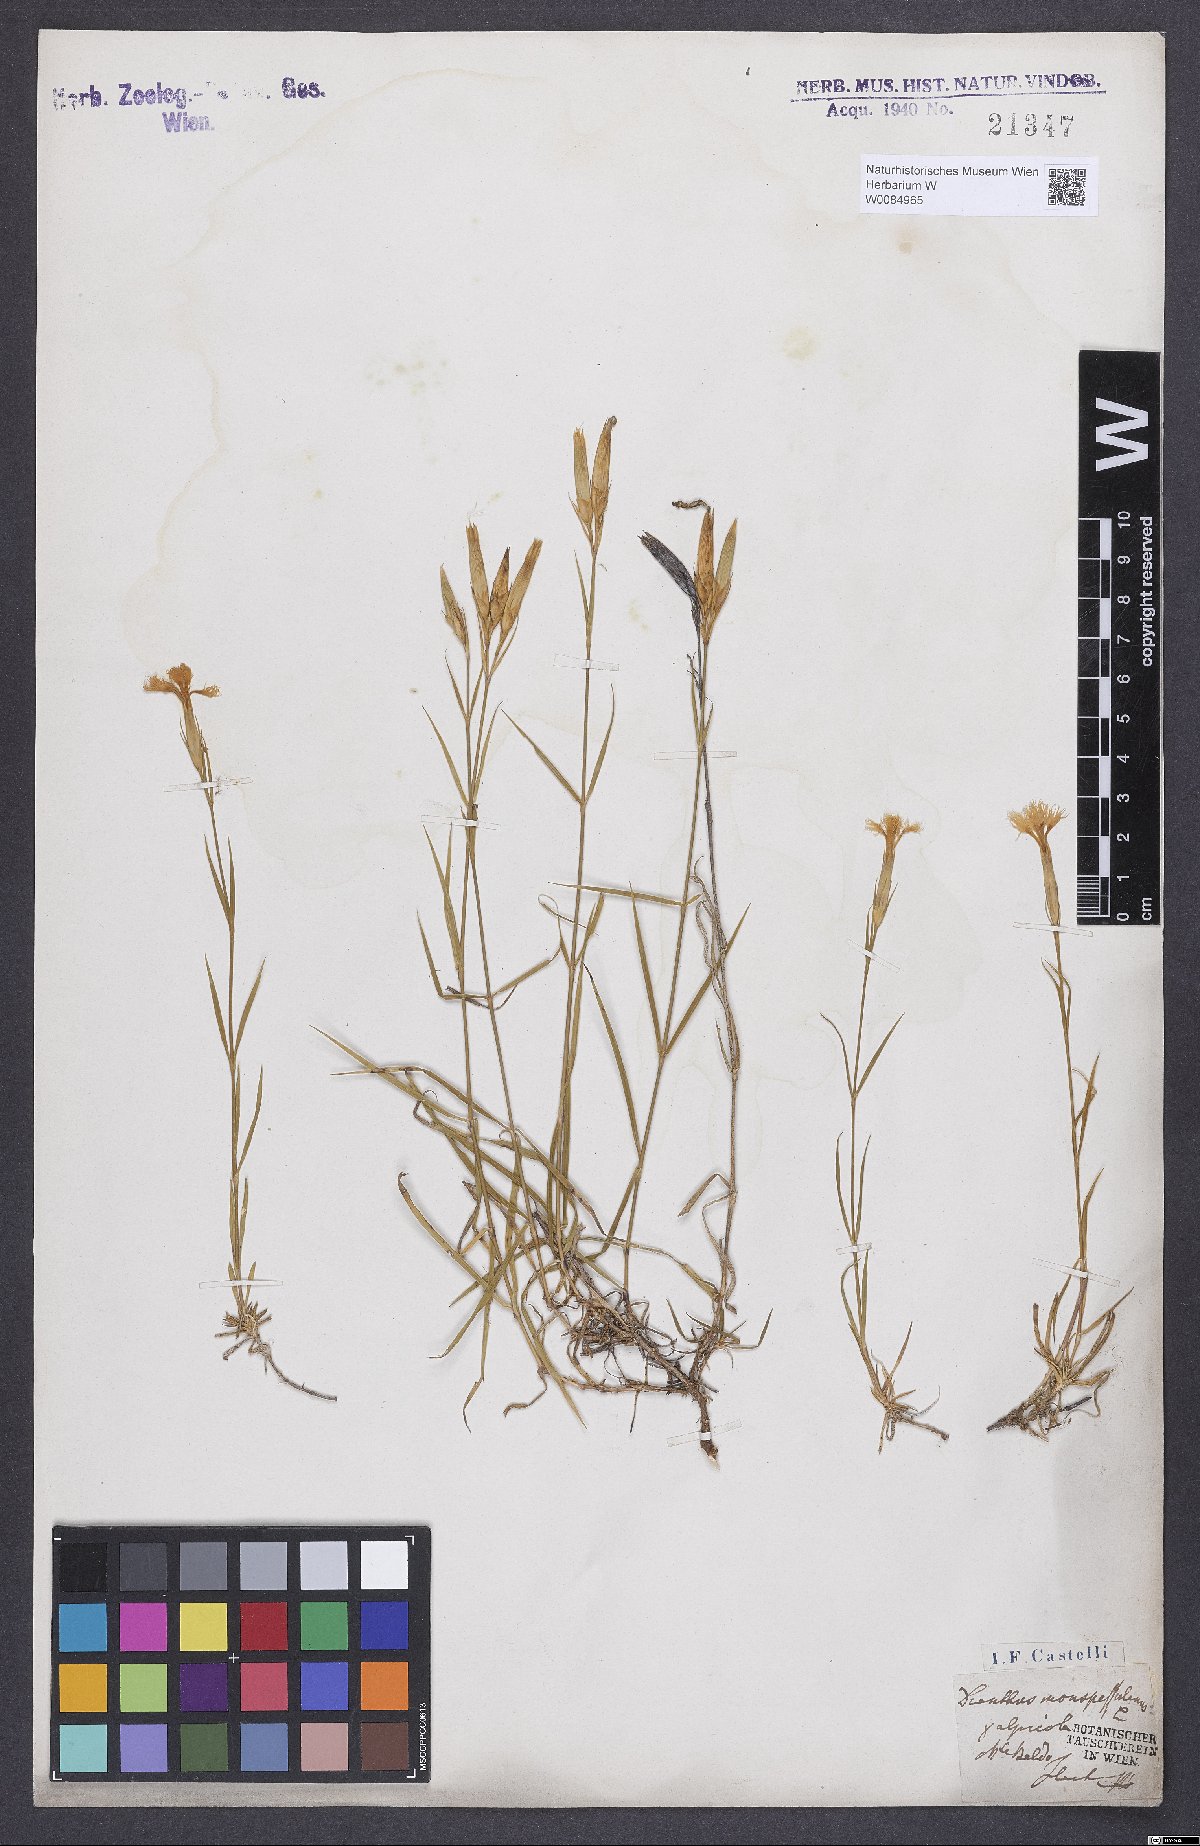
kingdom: Plantae
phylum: Tracheophyta
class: Magnoliopsida
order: Caryophyllales
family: Caryophyllaceae
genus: Dianthus
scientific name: Dianthus hyssopifolius
